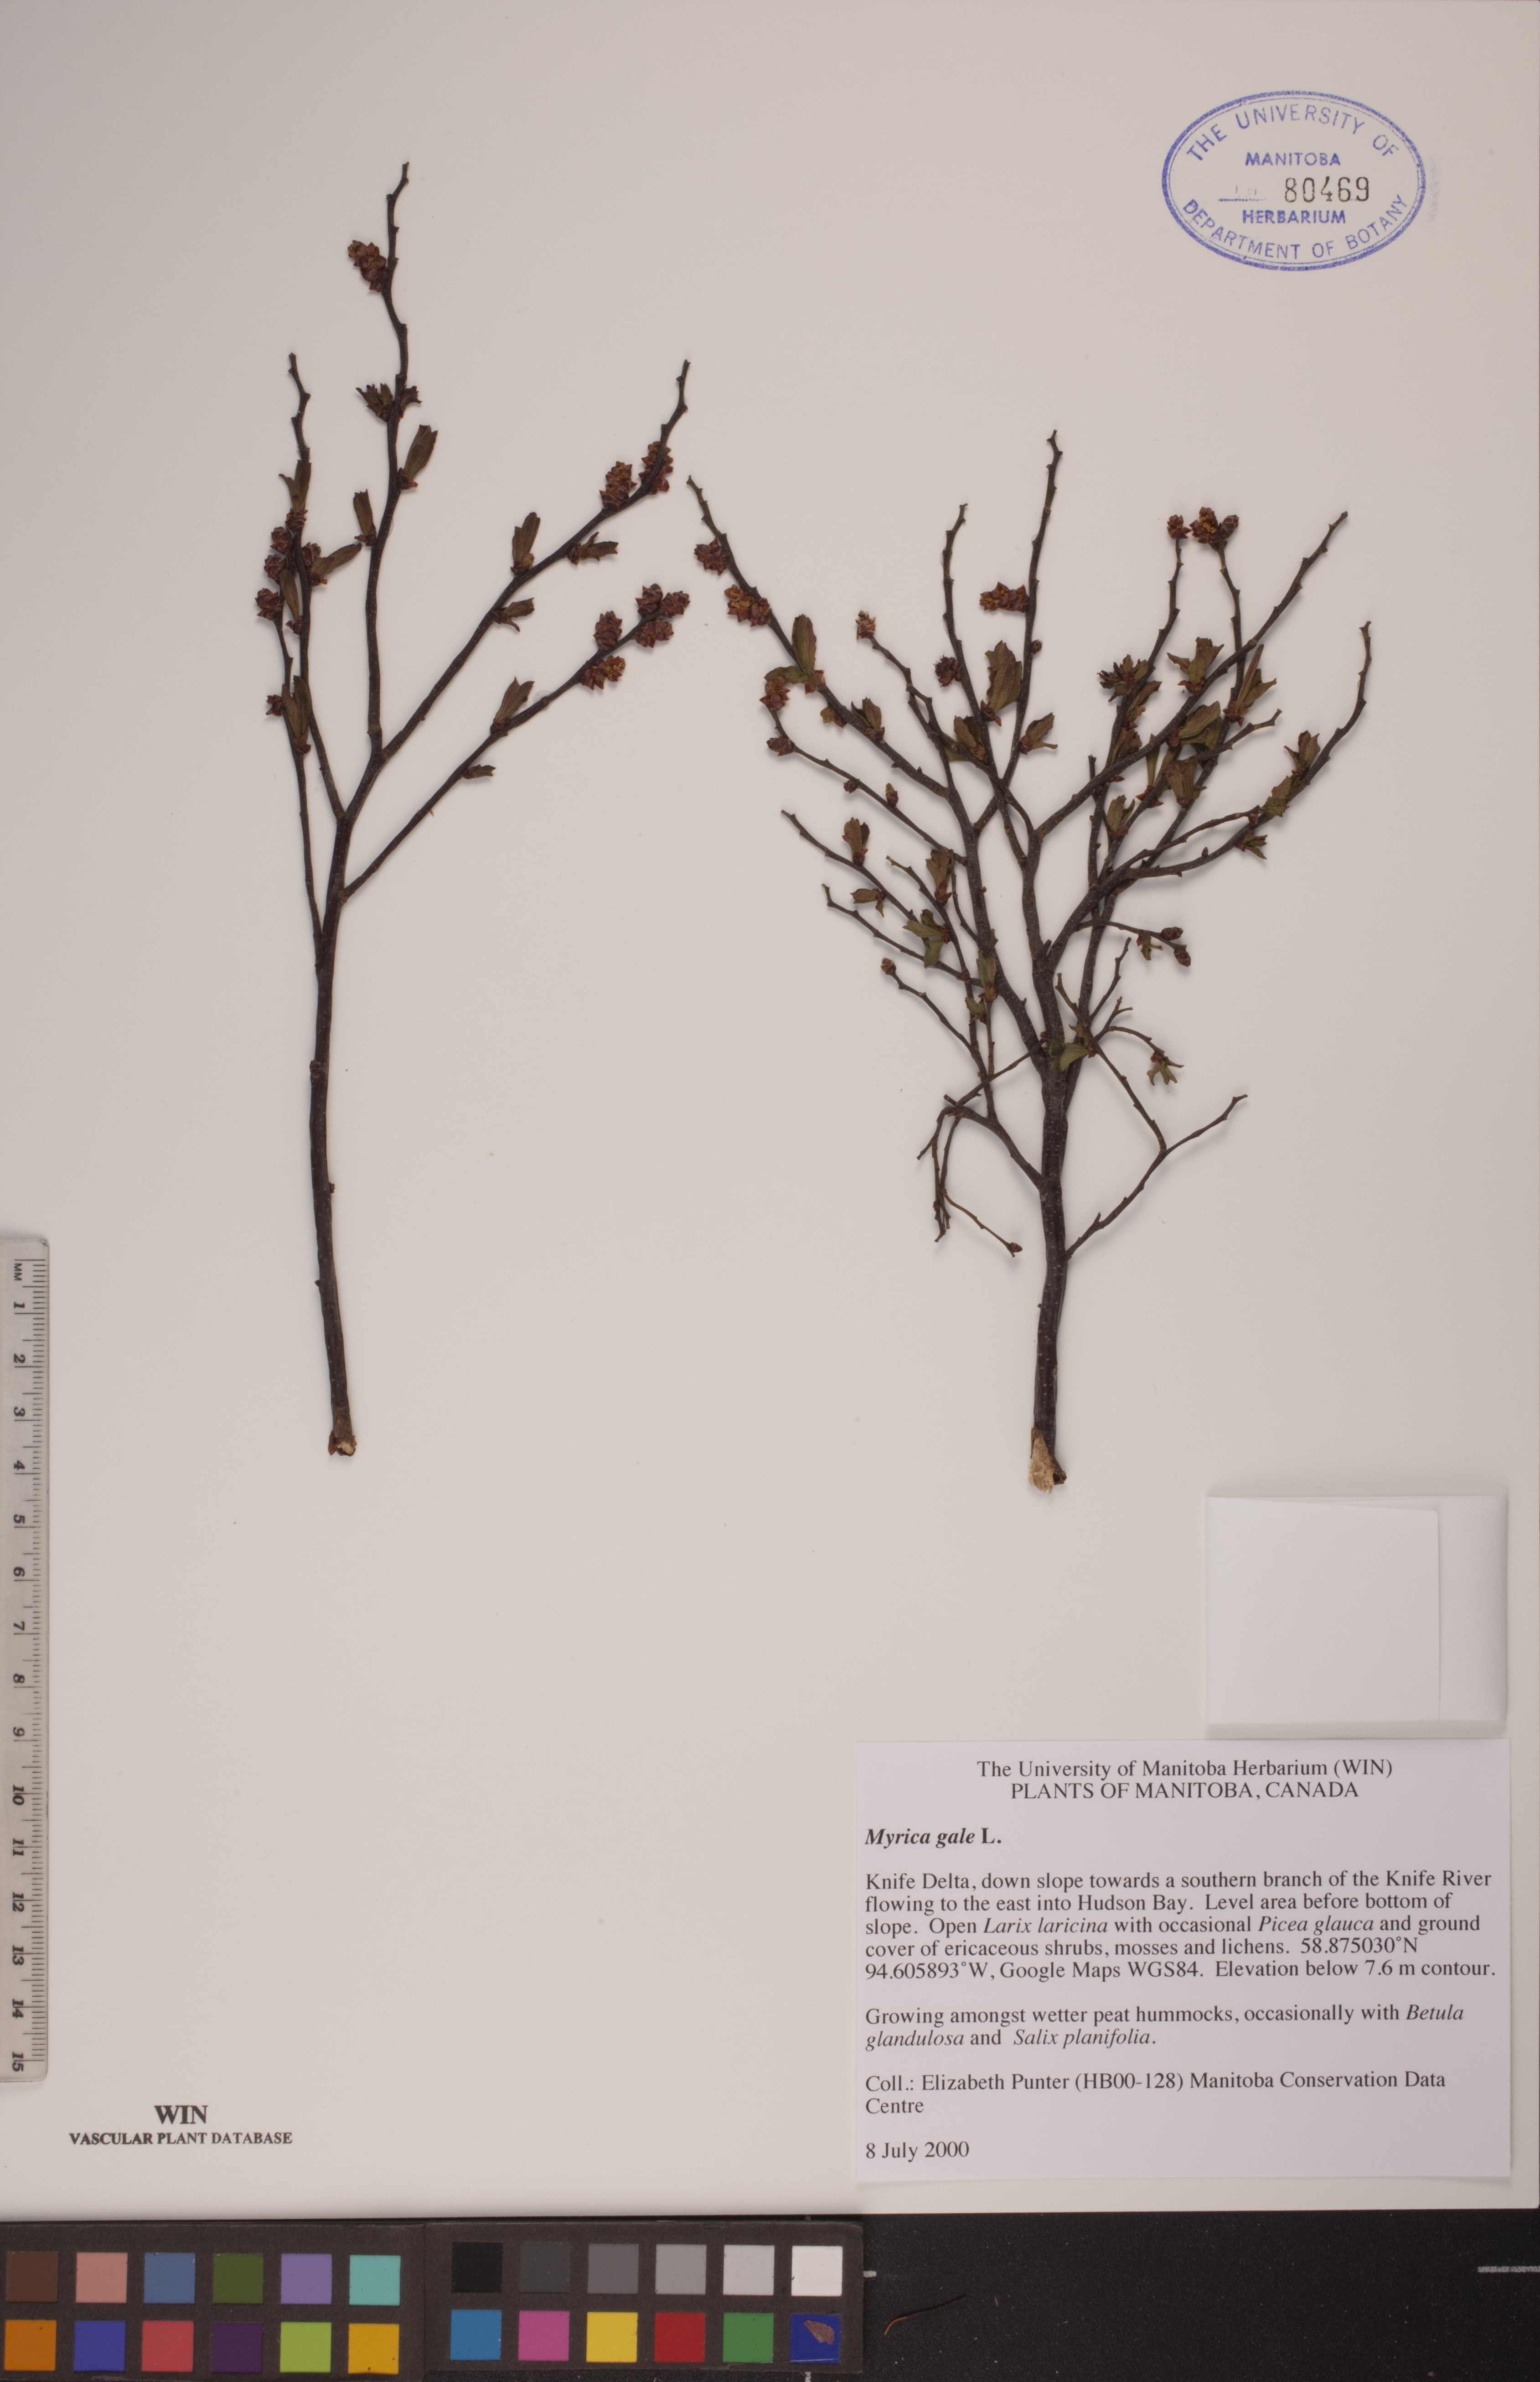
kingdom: Plantae
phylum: Tracheophyta
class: Magnoliopsida
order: Fagales
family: Myricaceae
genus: Myrica
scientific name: Myrica gale
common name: Sweet gale
